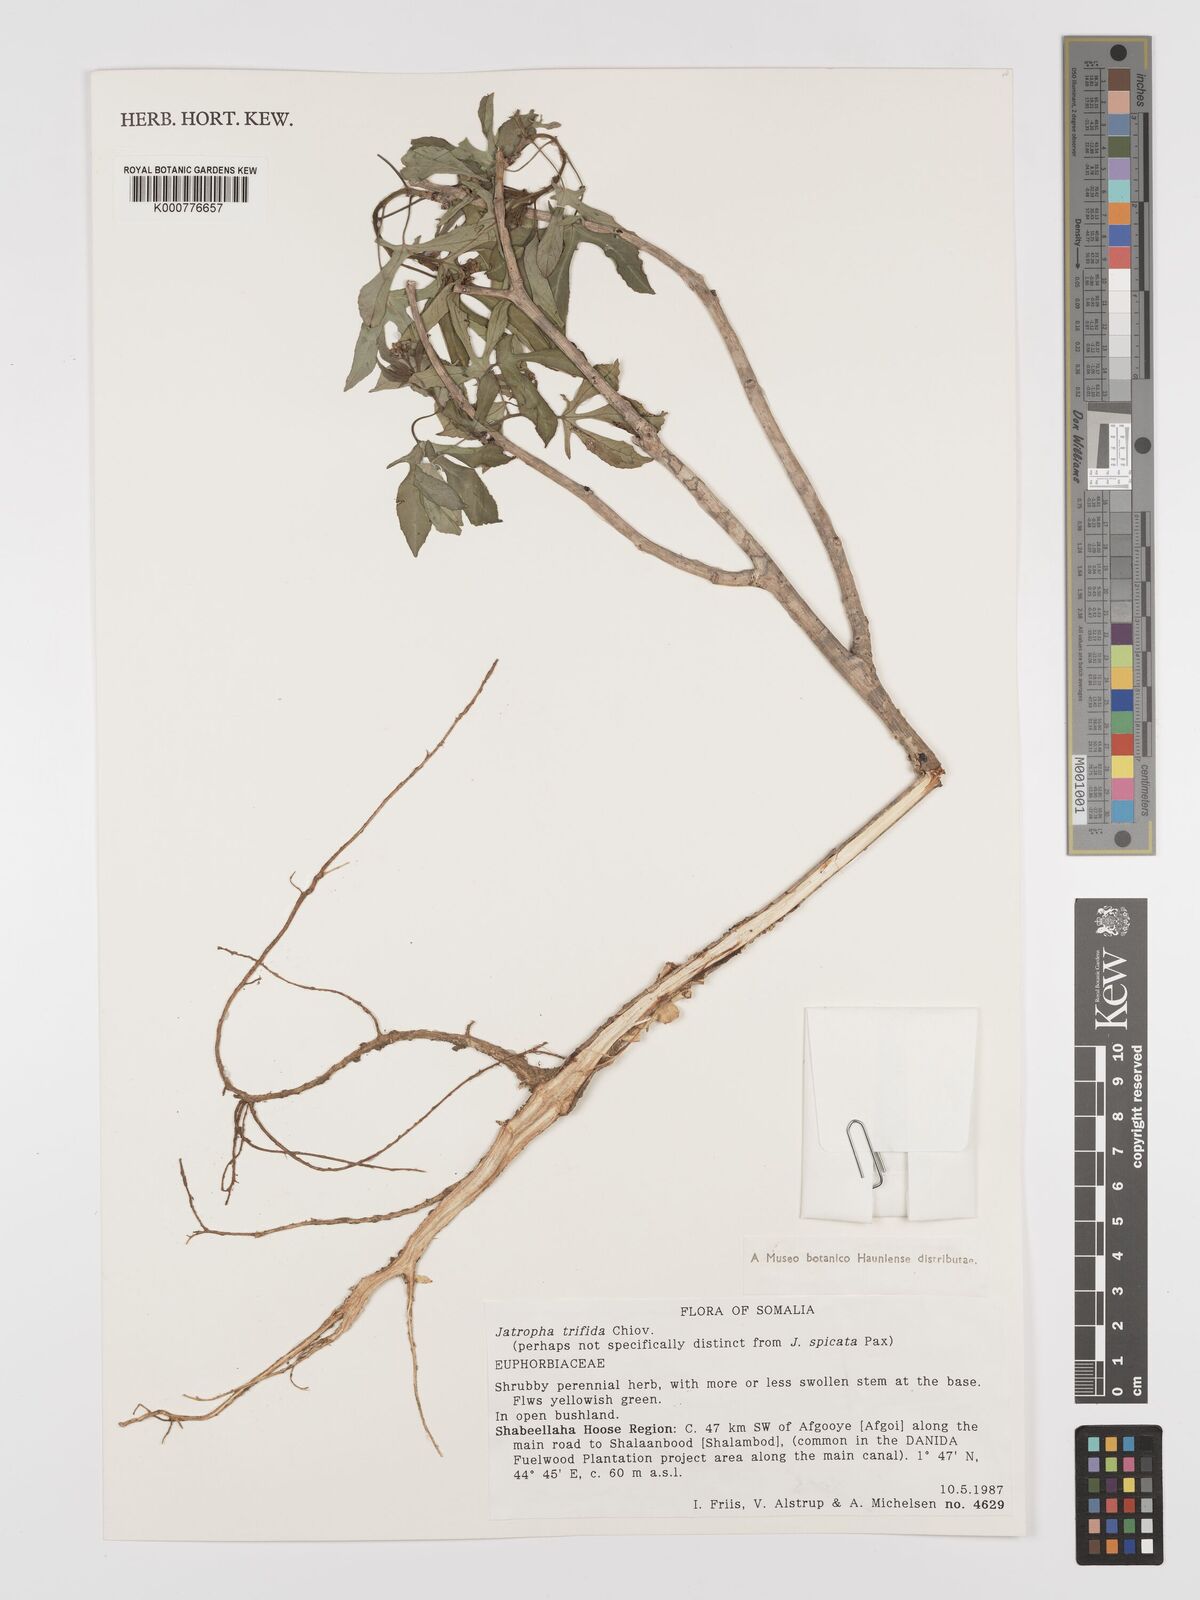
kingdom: Plantae
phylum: Tracheophyta
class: Magnoliopsida
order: Malpighiales
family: Euphorbiaceae
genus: Jatropha
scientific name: Jatropha trifida
